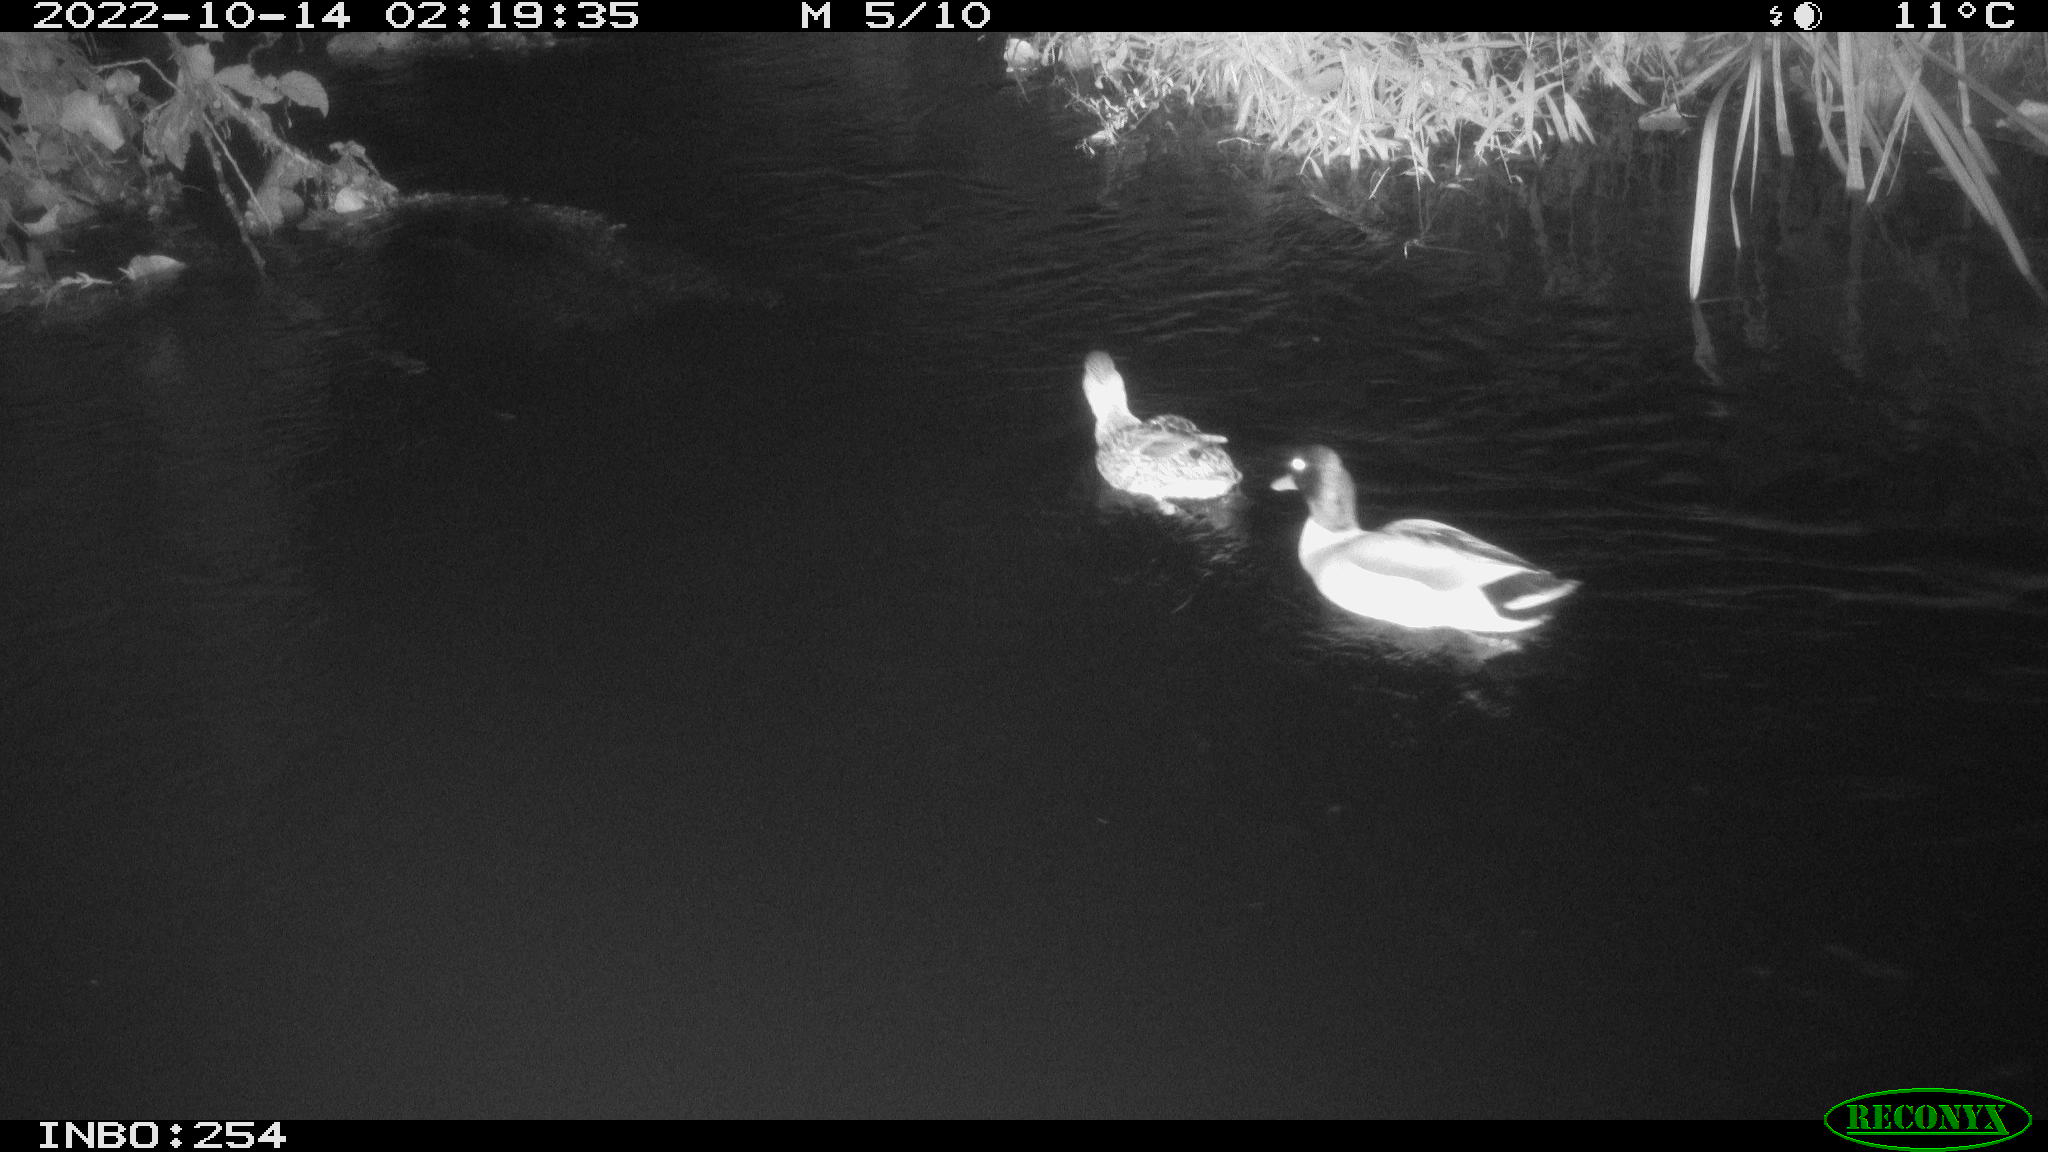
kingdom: Animalia
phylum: Chordata
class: Aves
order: Anseriformes
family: Anatidae
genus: Anas
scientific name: Anas
